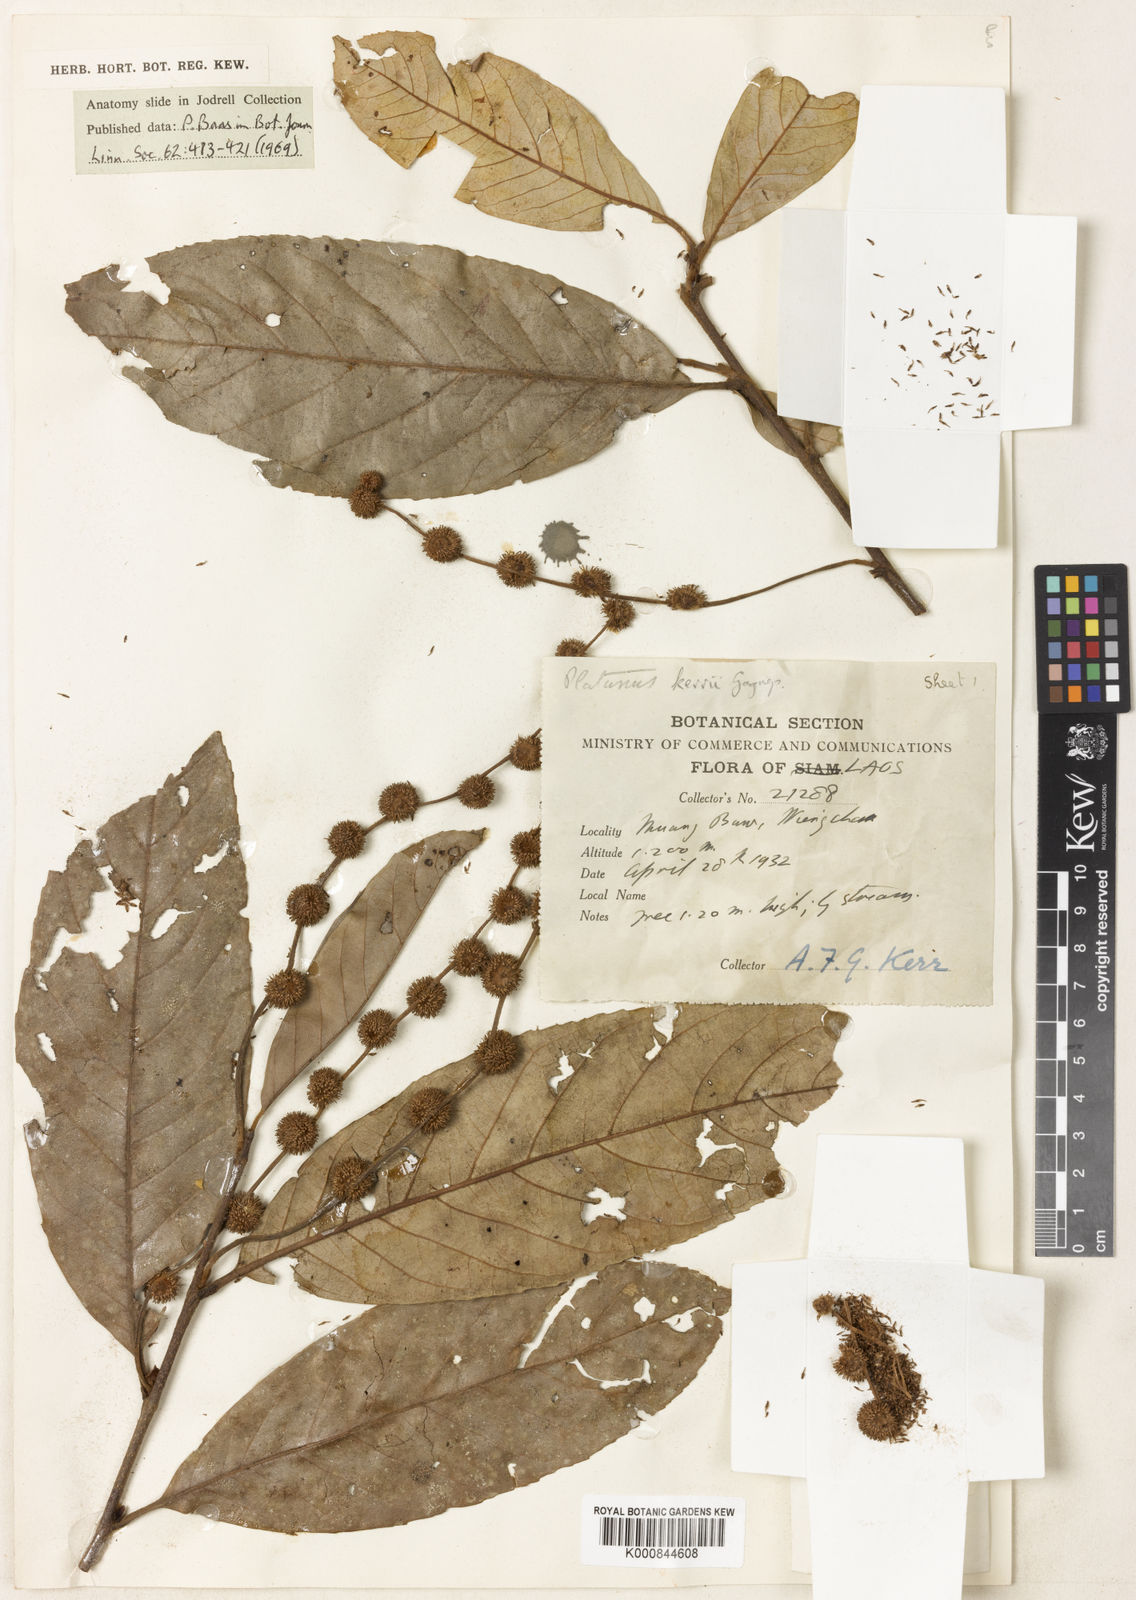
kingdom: Plantae
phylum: Tracheophyta
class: Magnoliopsida
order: Proteales
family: Platanaceae
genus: Platanus
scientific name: Platanus kerrii
